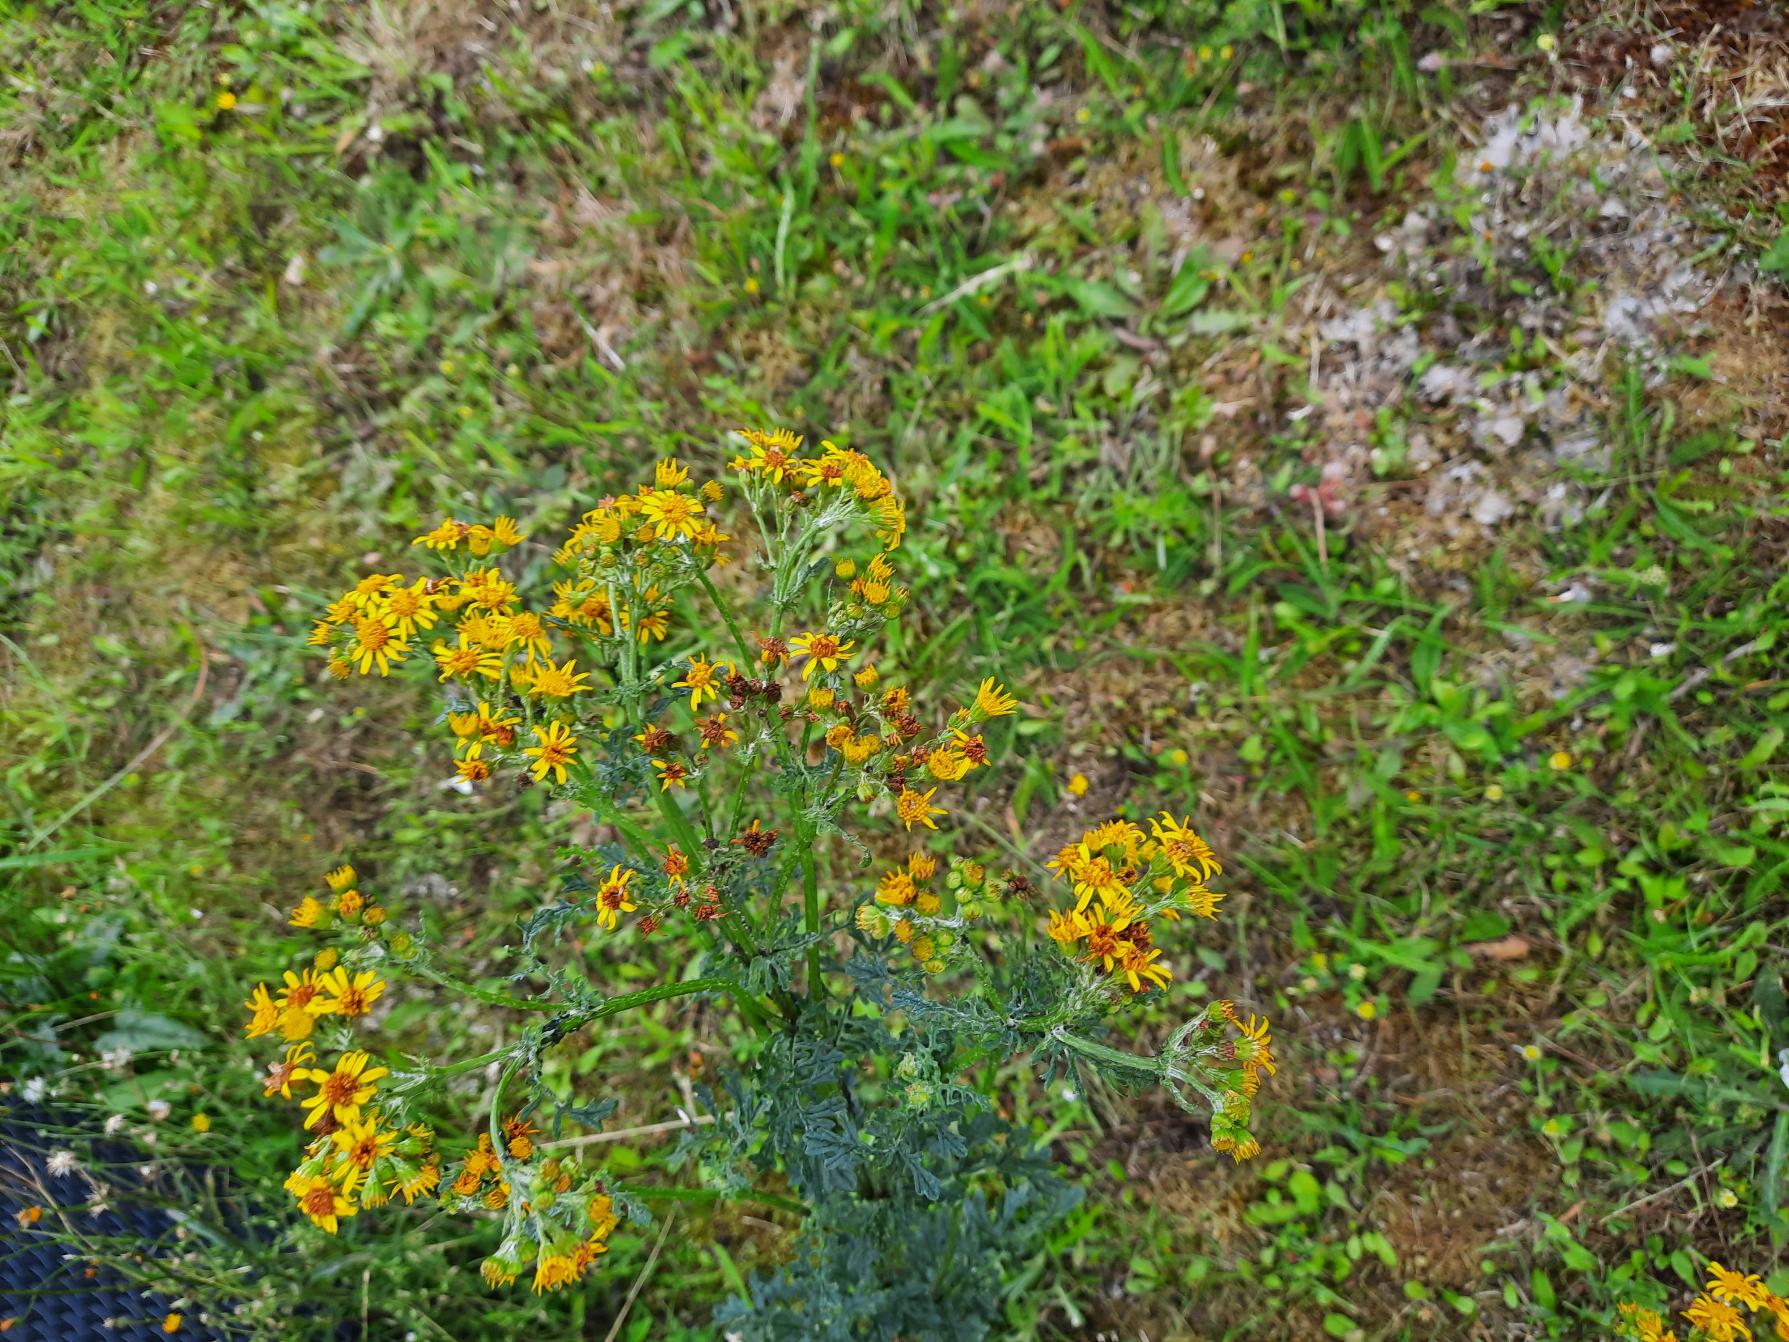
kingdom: Plantae
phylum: Tracheophyta
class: Magnoliopsida
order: Asterales
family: Asteraceae
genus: Jacobaea
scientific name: Jacobaea vulgaris
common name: Eng-brandbæger
